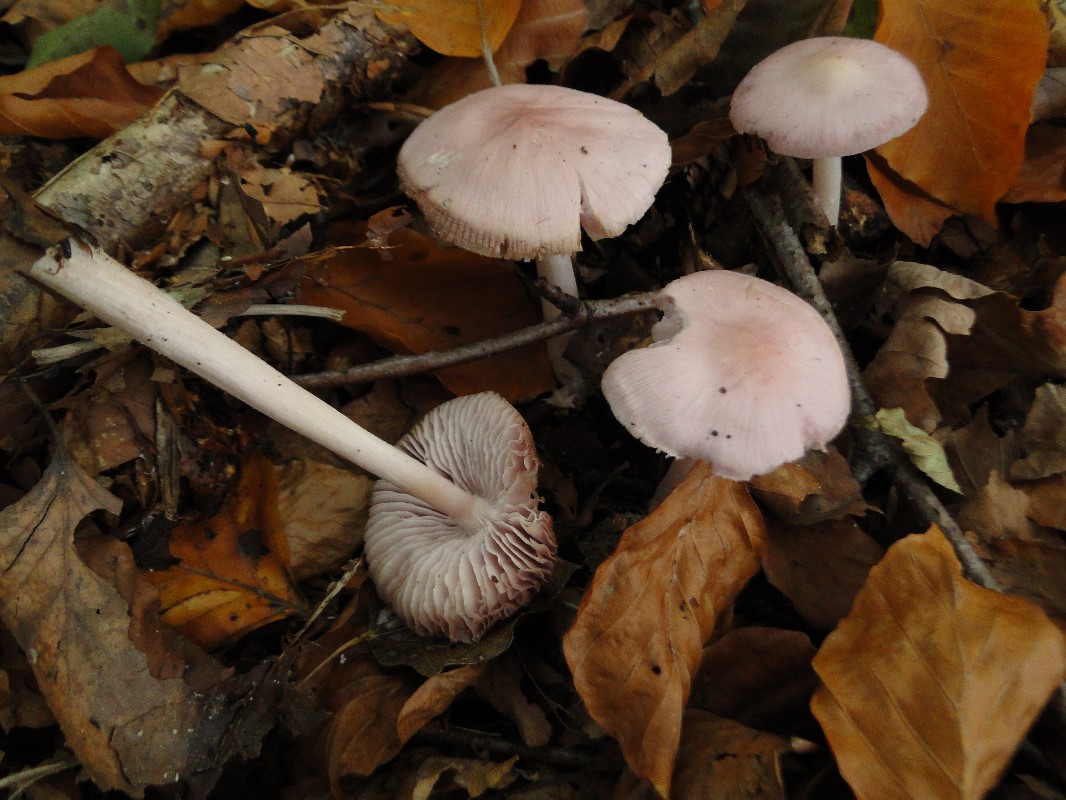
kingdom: Fungi
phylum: Basidiomycota
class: Agaricomycetes
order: Agaricales
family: Mycenaceae
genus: Mycena
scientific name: Mycena rosea
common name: rosa huesvamp
